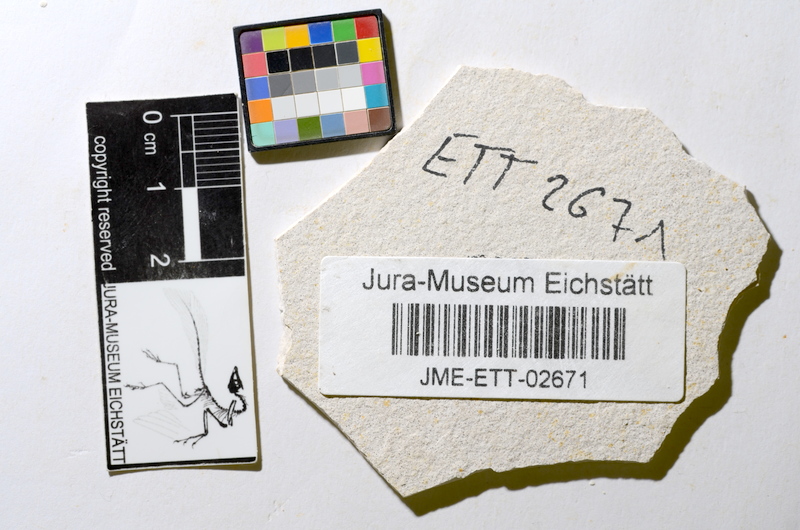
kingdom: Animalia
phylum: Chordata
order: Salmoniformes
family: Orthogonikleithridae
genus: Orthogonikleithrus
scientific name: Orthogonikleithrus hoelli
